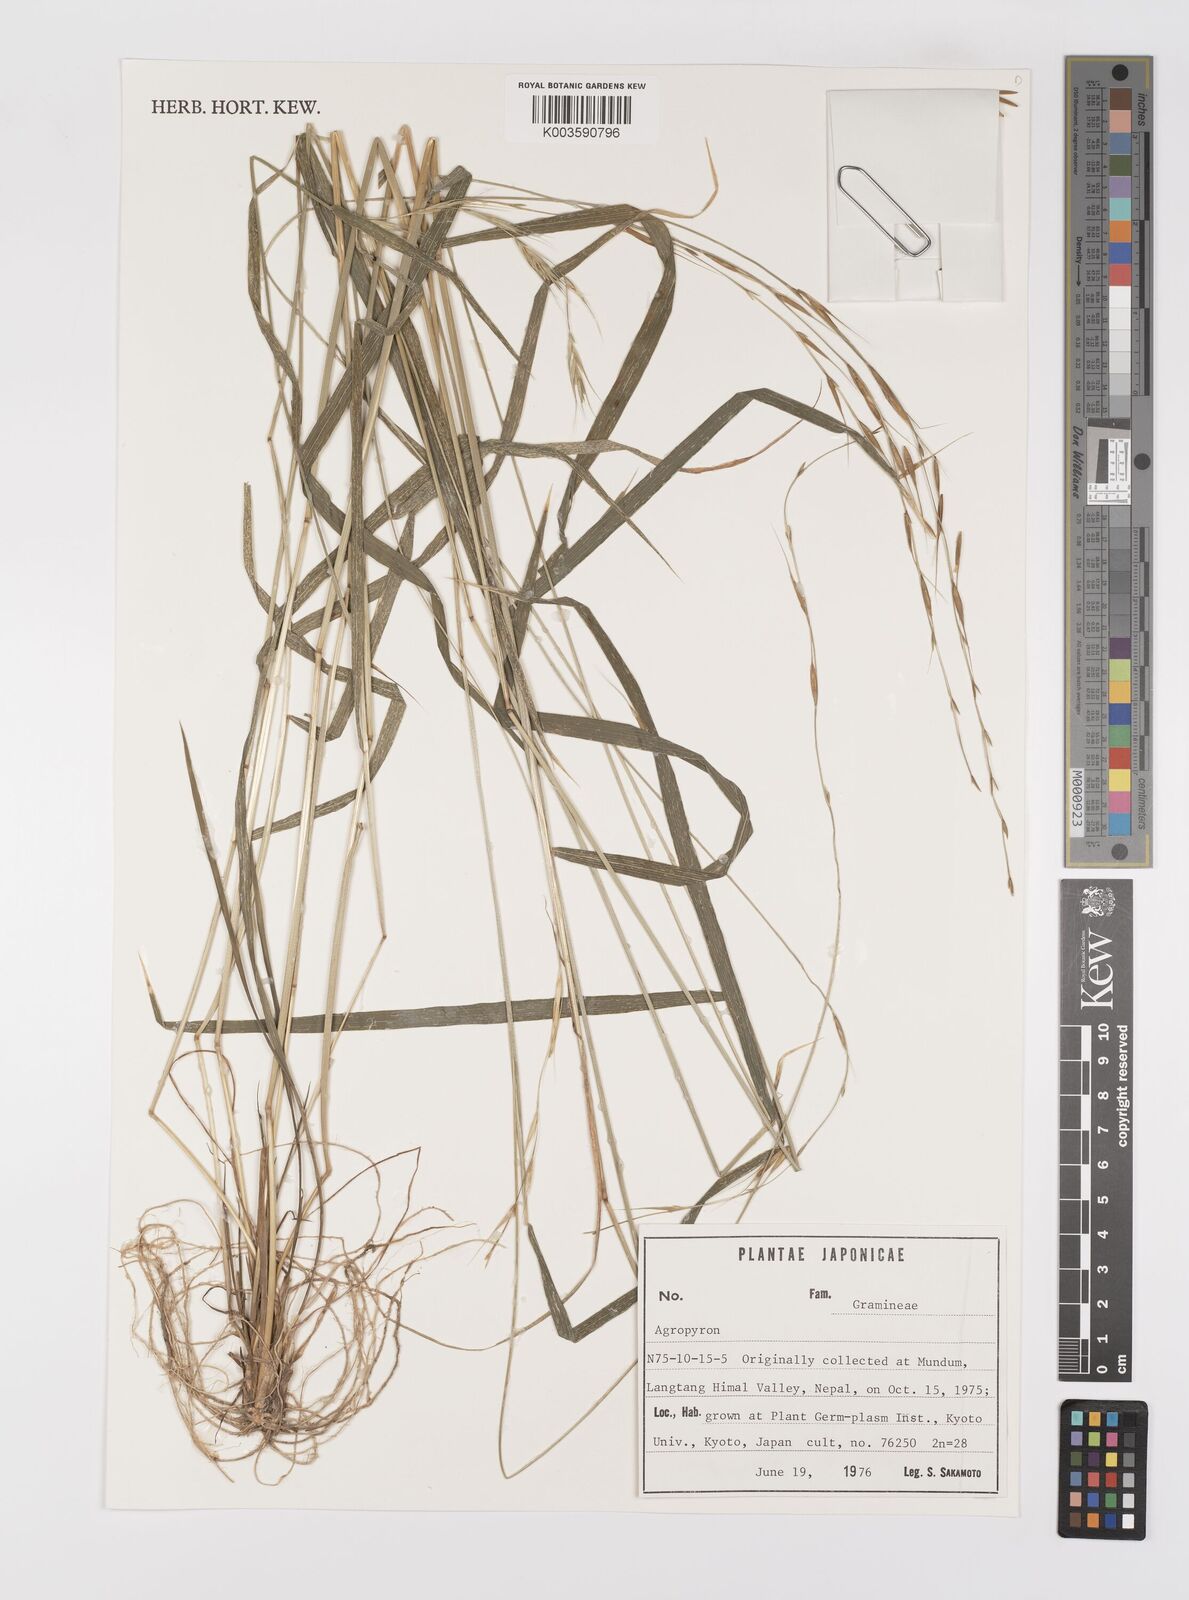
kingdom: Plantae
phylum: Tracheophyta
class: Liliopsida
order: Poales
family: Poaceae
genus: Elymus
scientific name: Elymus
